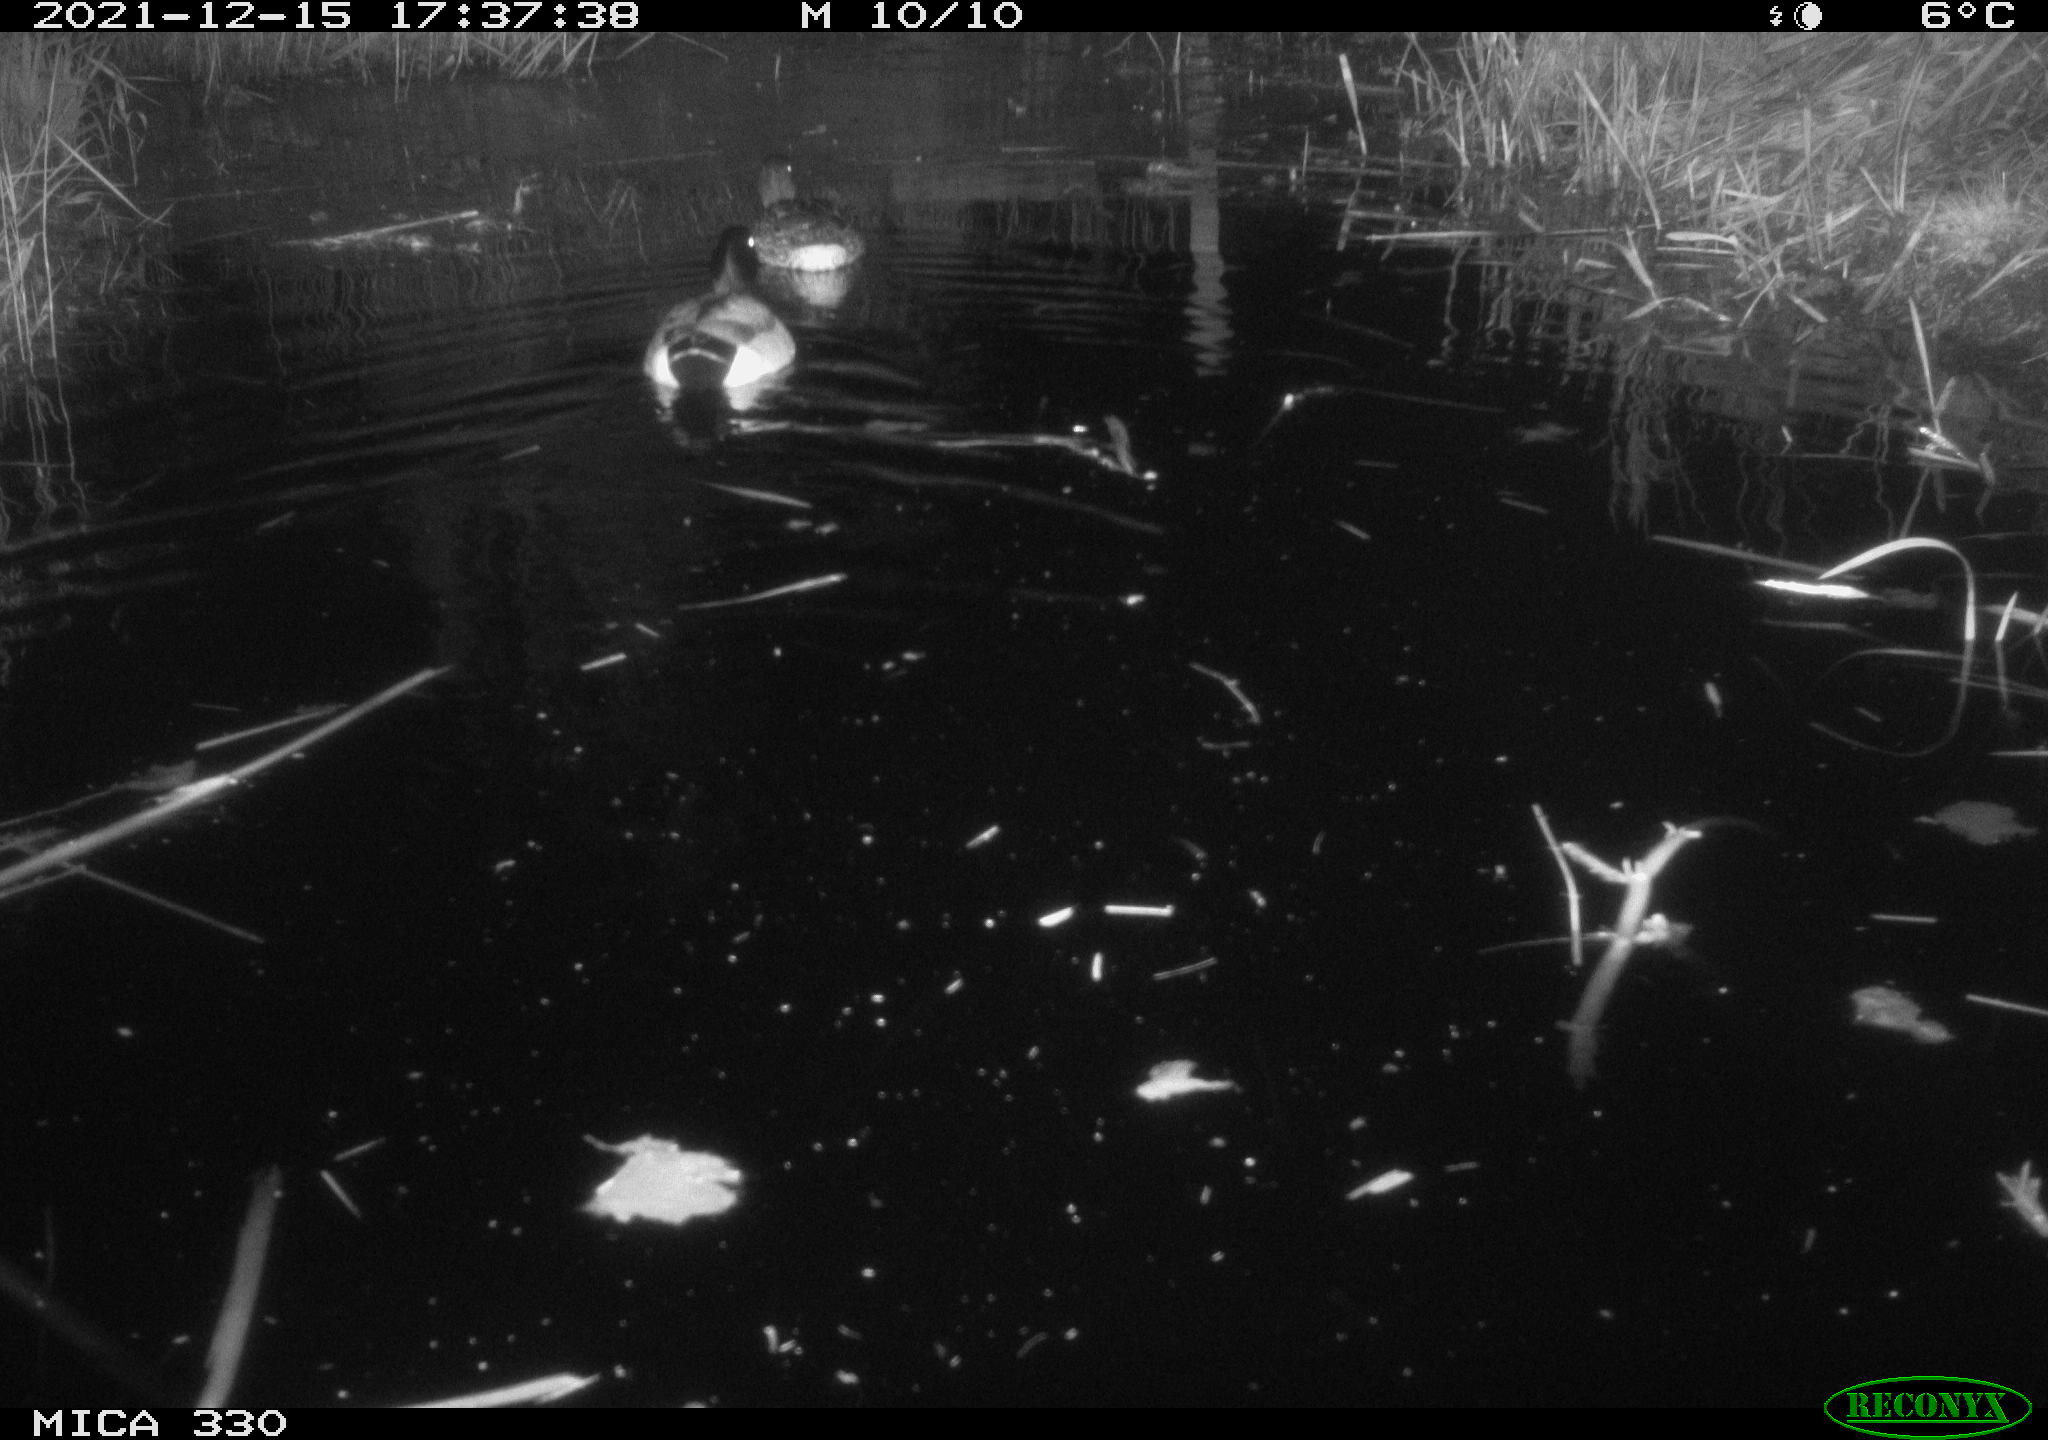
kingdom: Animalia
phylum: Chordata
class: Aves
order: Anseriformes
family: Anatidae
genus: Anas
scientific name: Anas platyrhynchos
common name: Mallard
